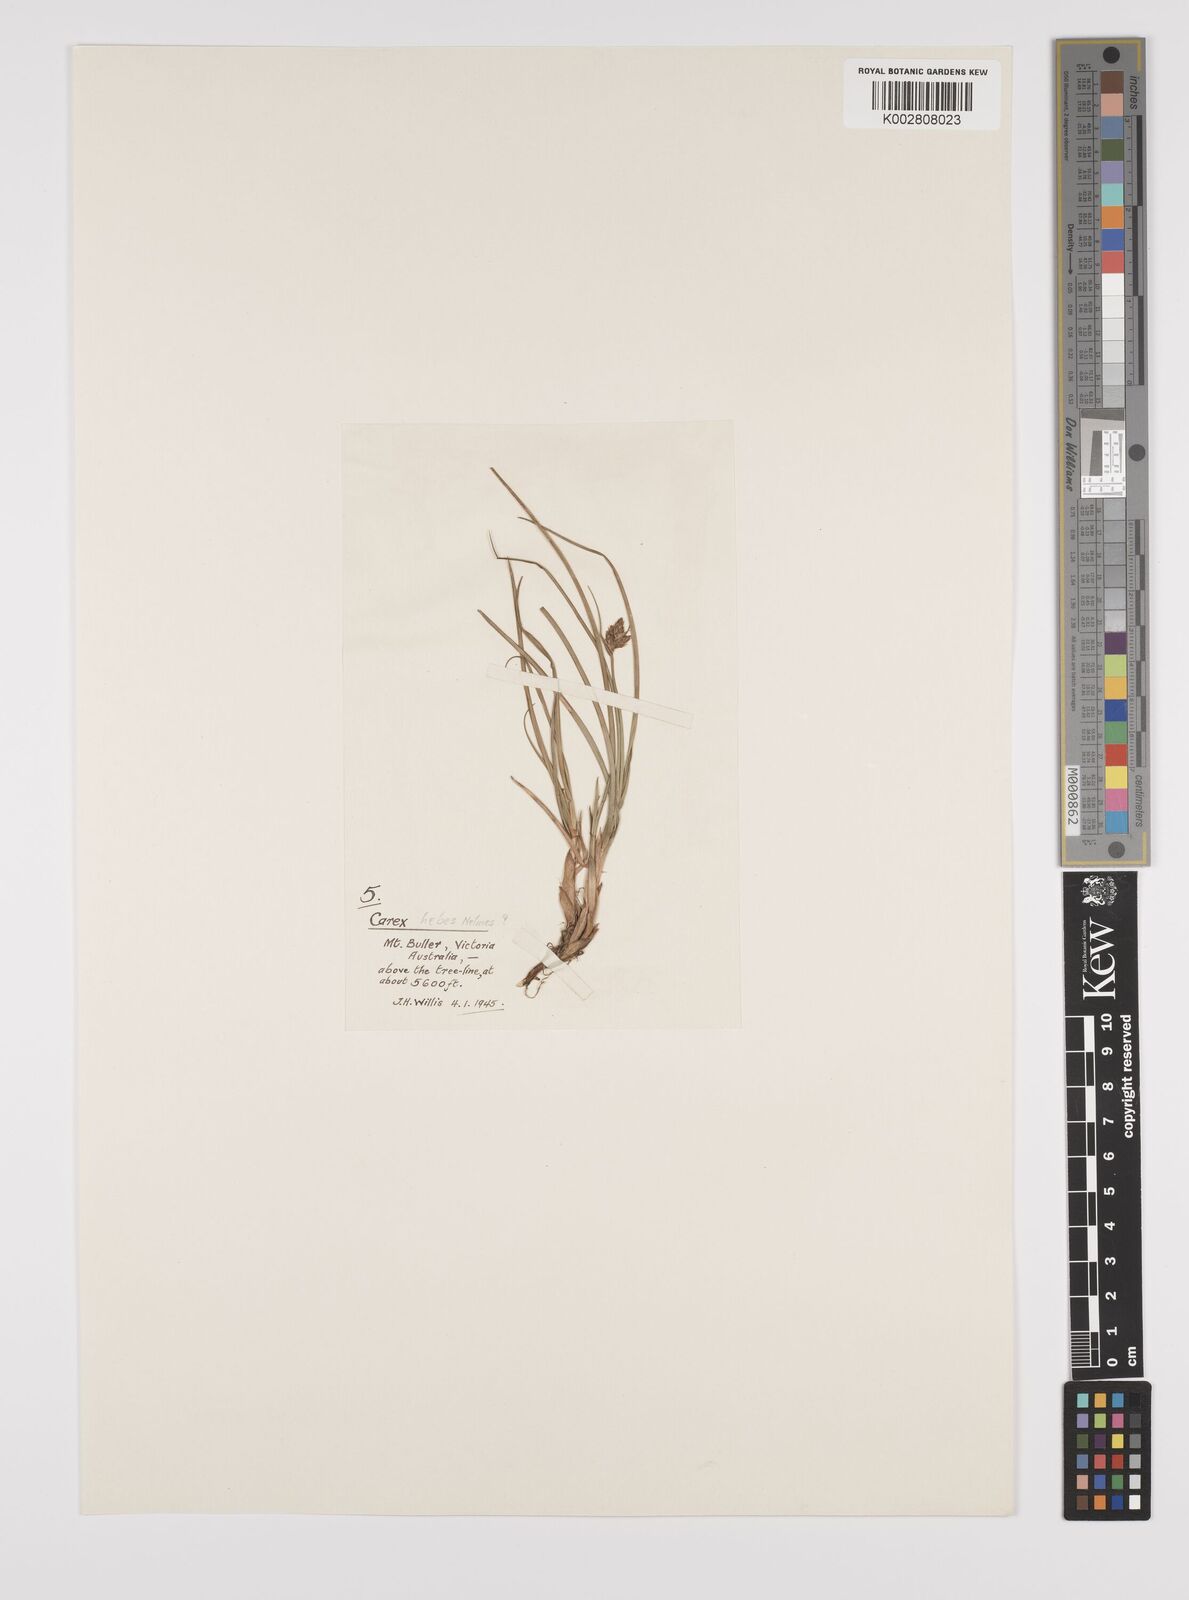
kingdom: Plantae
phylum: Tracheophyta
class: Liliopsida
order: Poales
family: Cyperaceae
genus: Carex
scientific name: Carex hebes
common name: Dry land sedge
